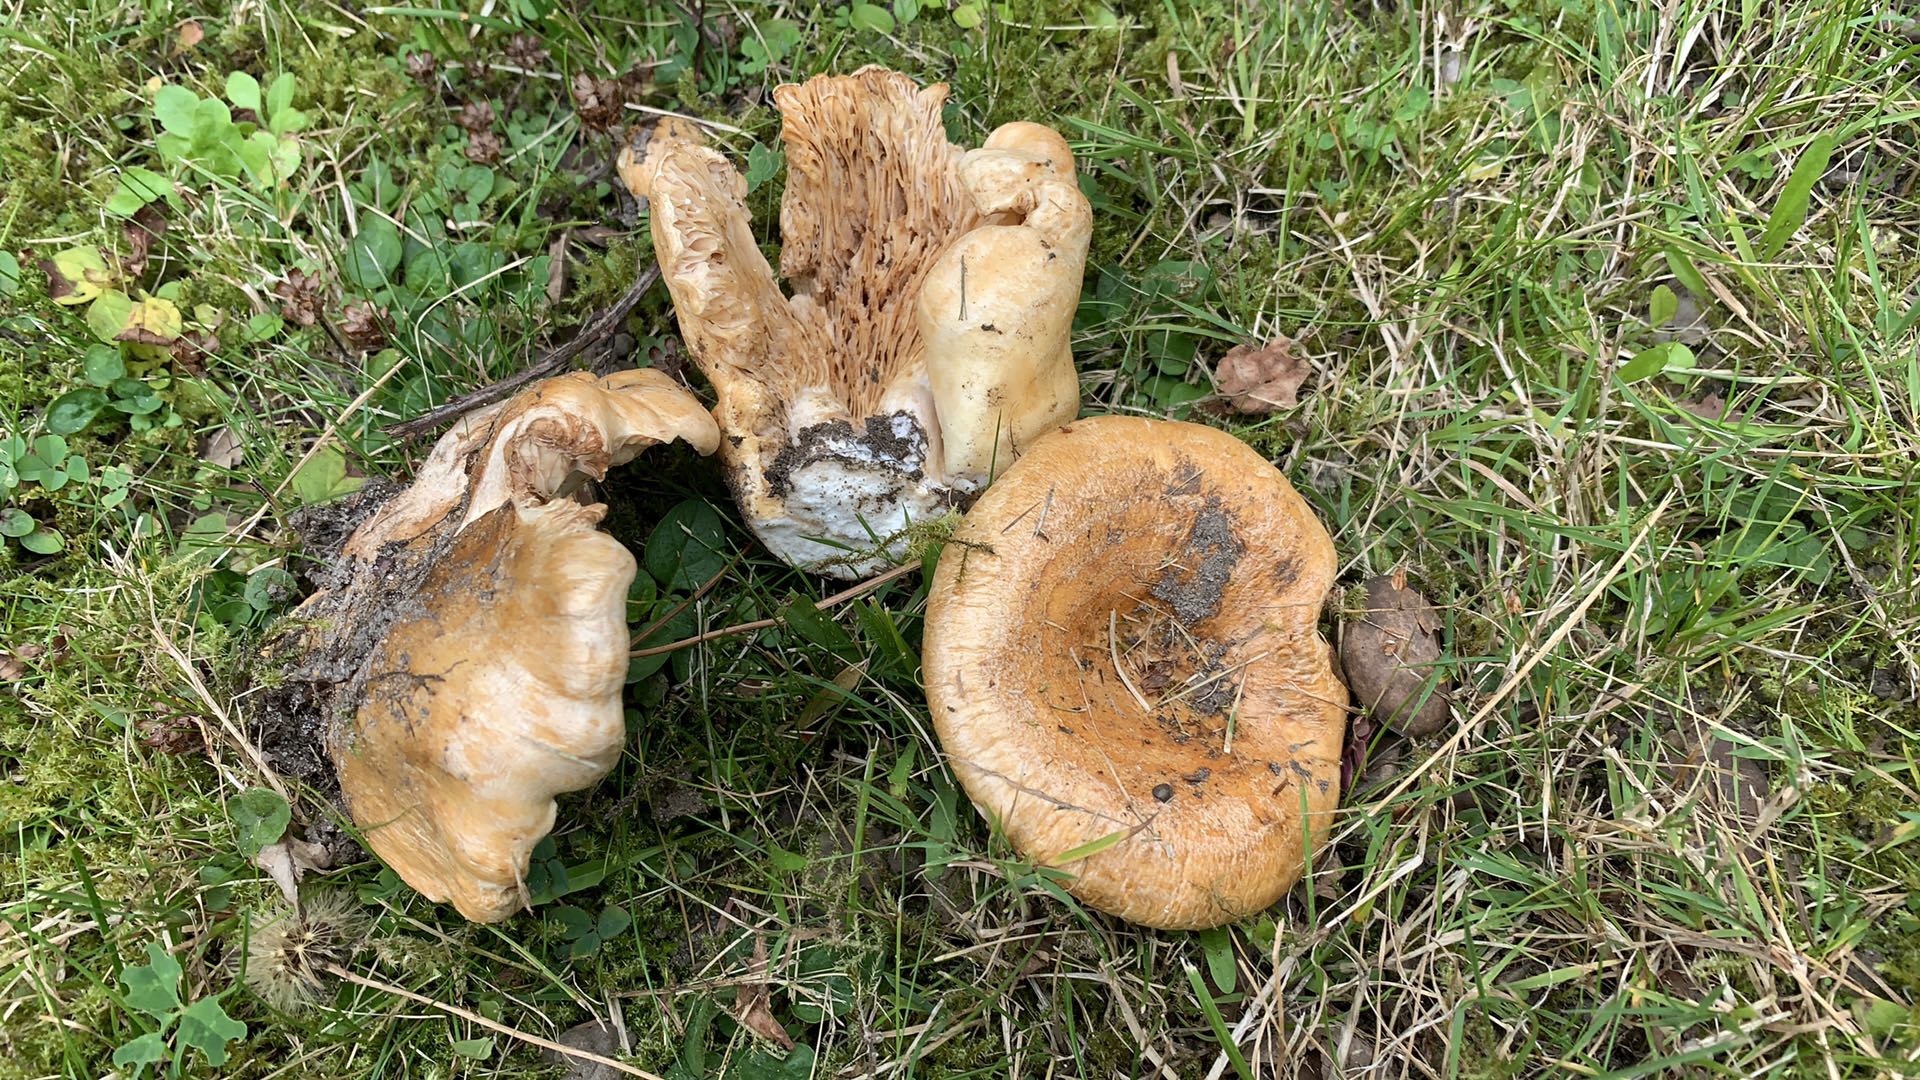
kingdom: Fungi
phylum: Basidiomycota
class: Agaricomycetes
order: Russulales
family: Russulaceae
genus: Lactarius
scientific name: Lactarius acerrimus
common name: brændende mælkehat
